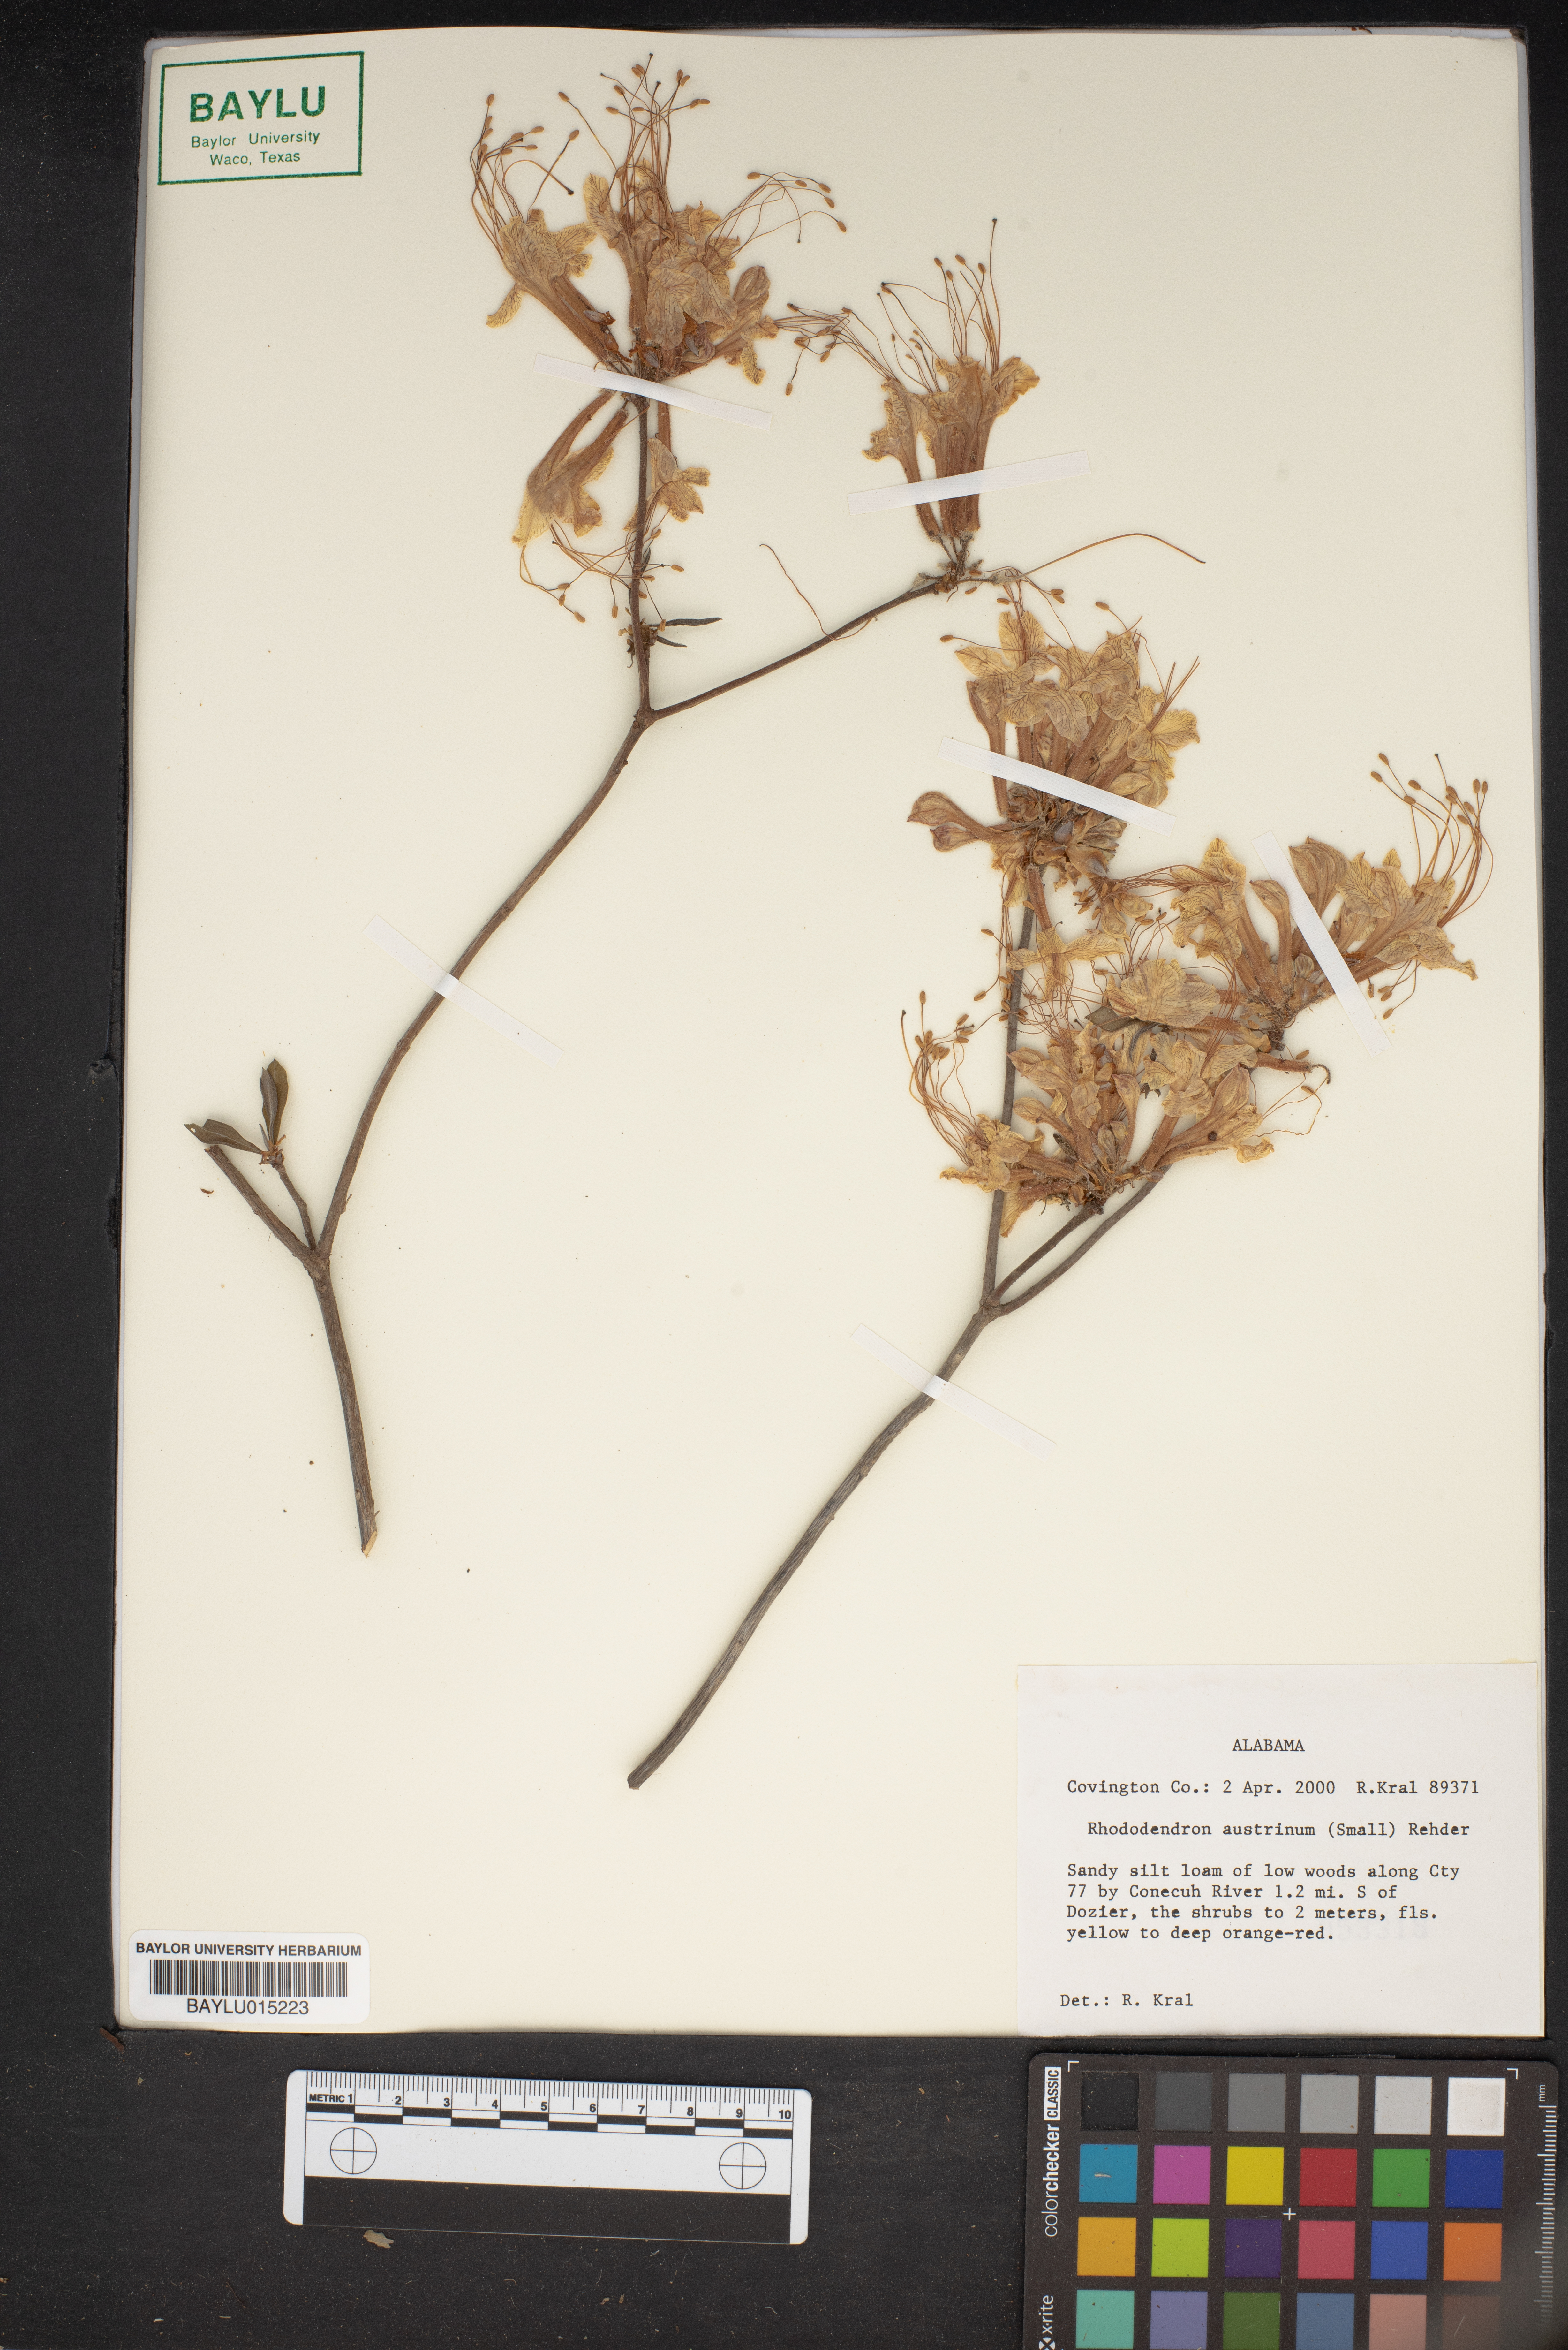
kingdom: Plantae
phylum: Tracheophyta
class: Magnoliopsida
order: Ericales
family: Ericaceae
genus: Rhododendron
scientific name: Rhododendron austrinum
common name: Florida azalea
